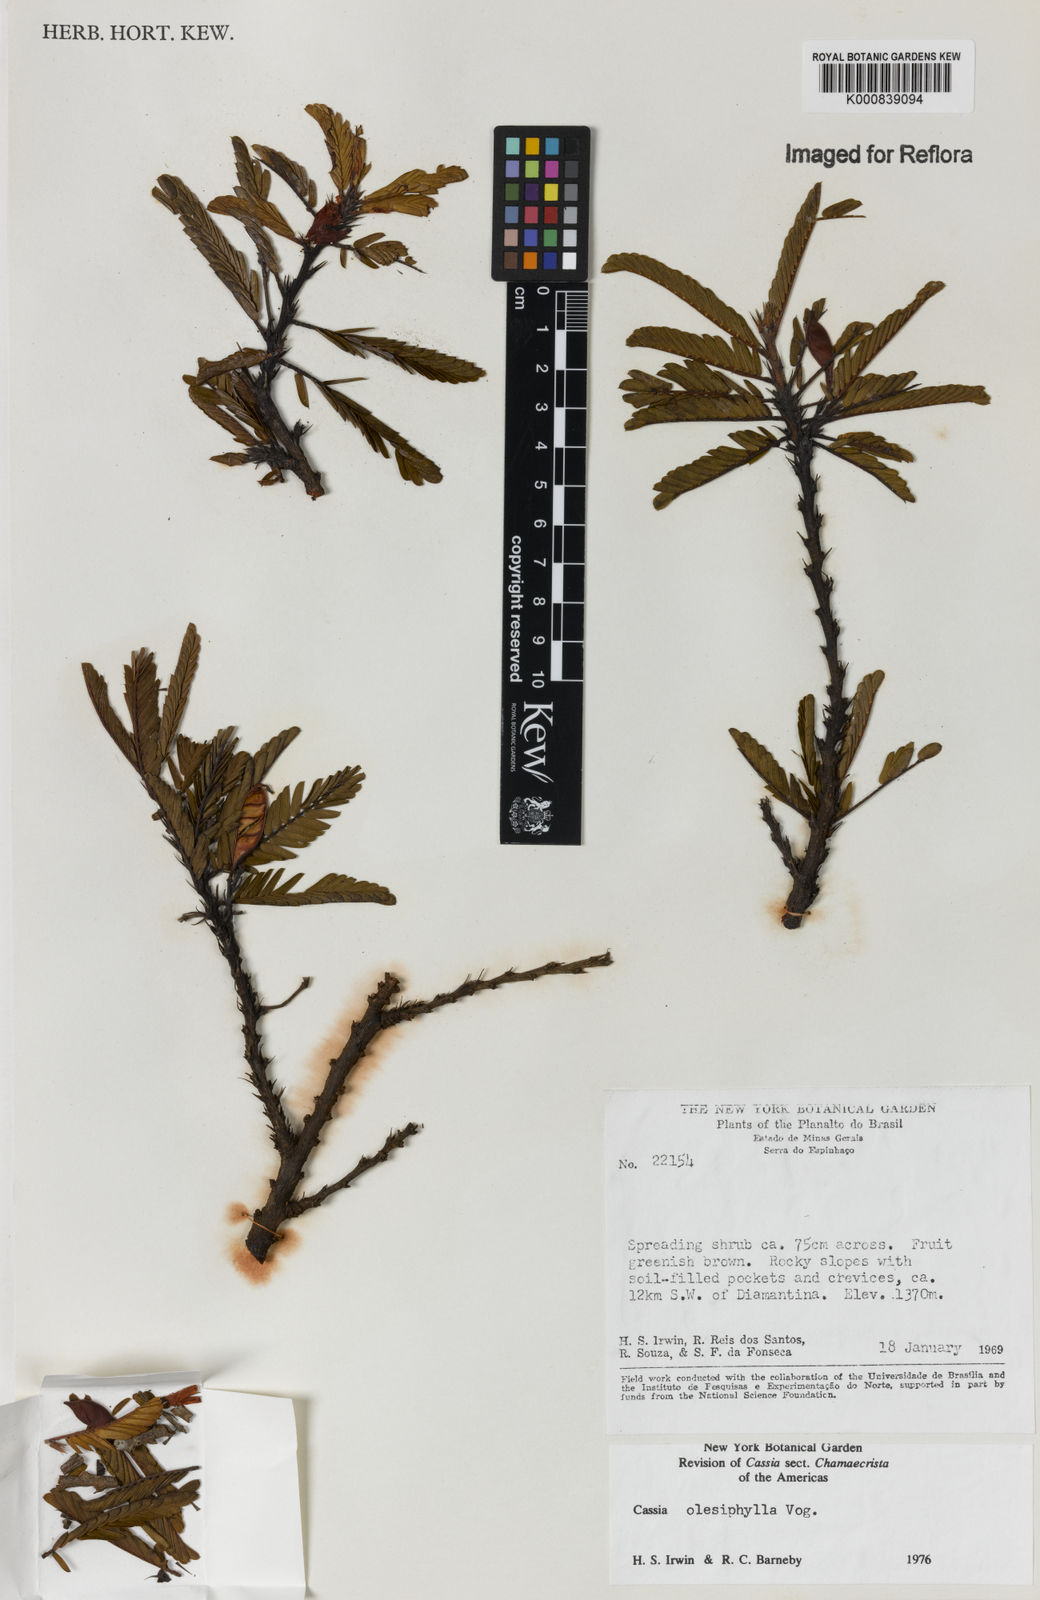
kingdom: Plantae
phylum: Tracheophyta
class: Magnoliopsida
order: Fabales
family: Fabaceae
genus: Chamaecrista
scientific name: Chamaecrista
